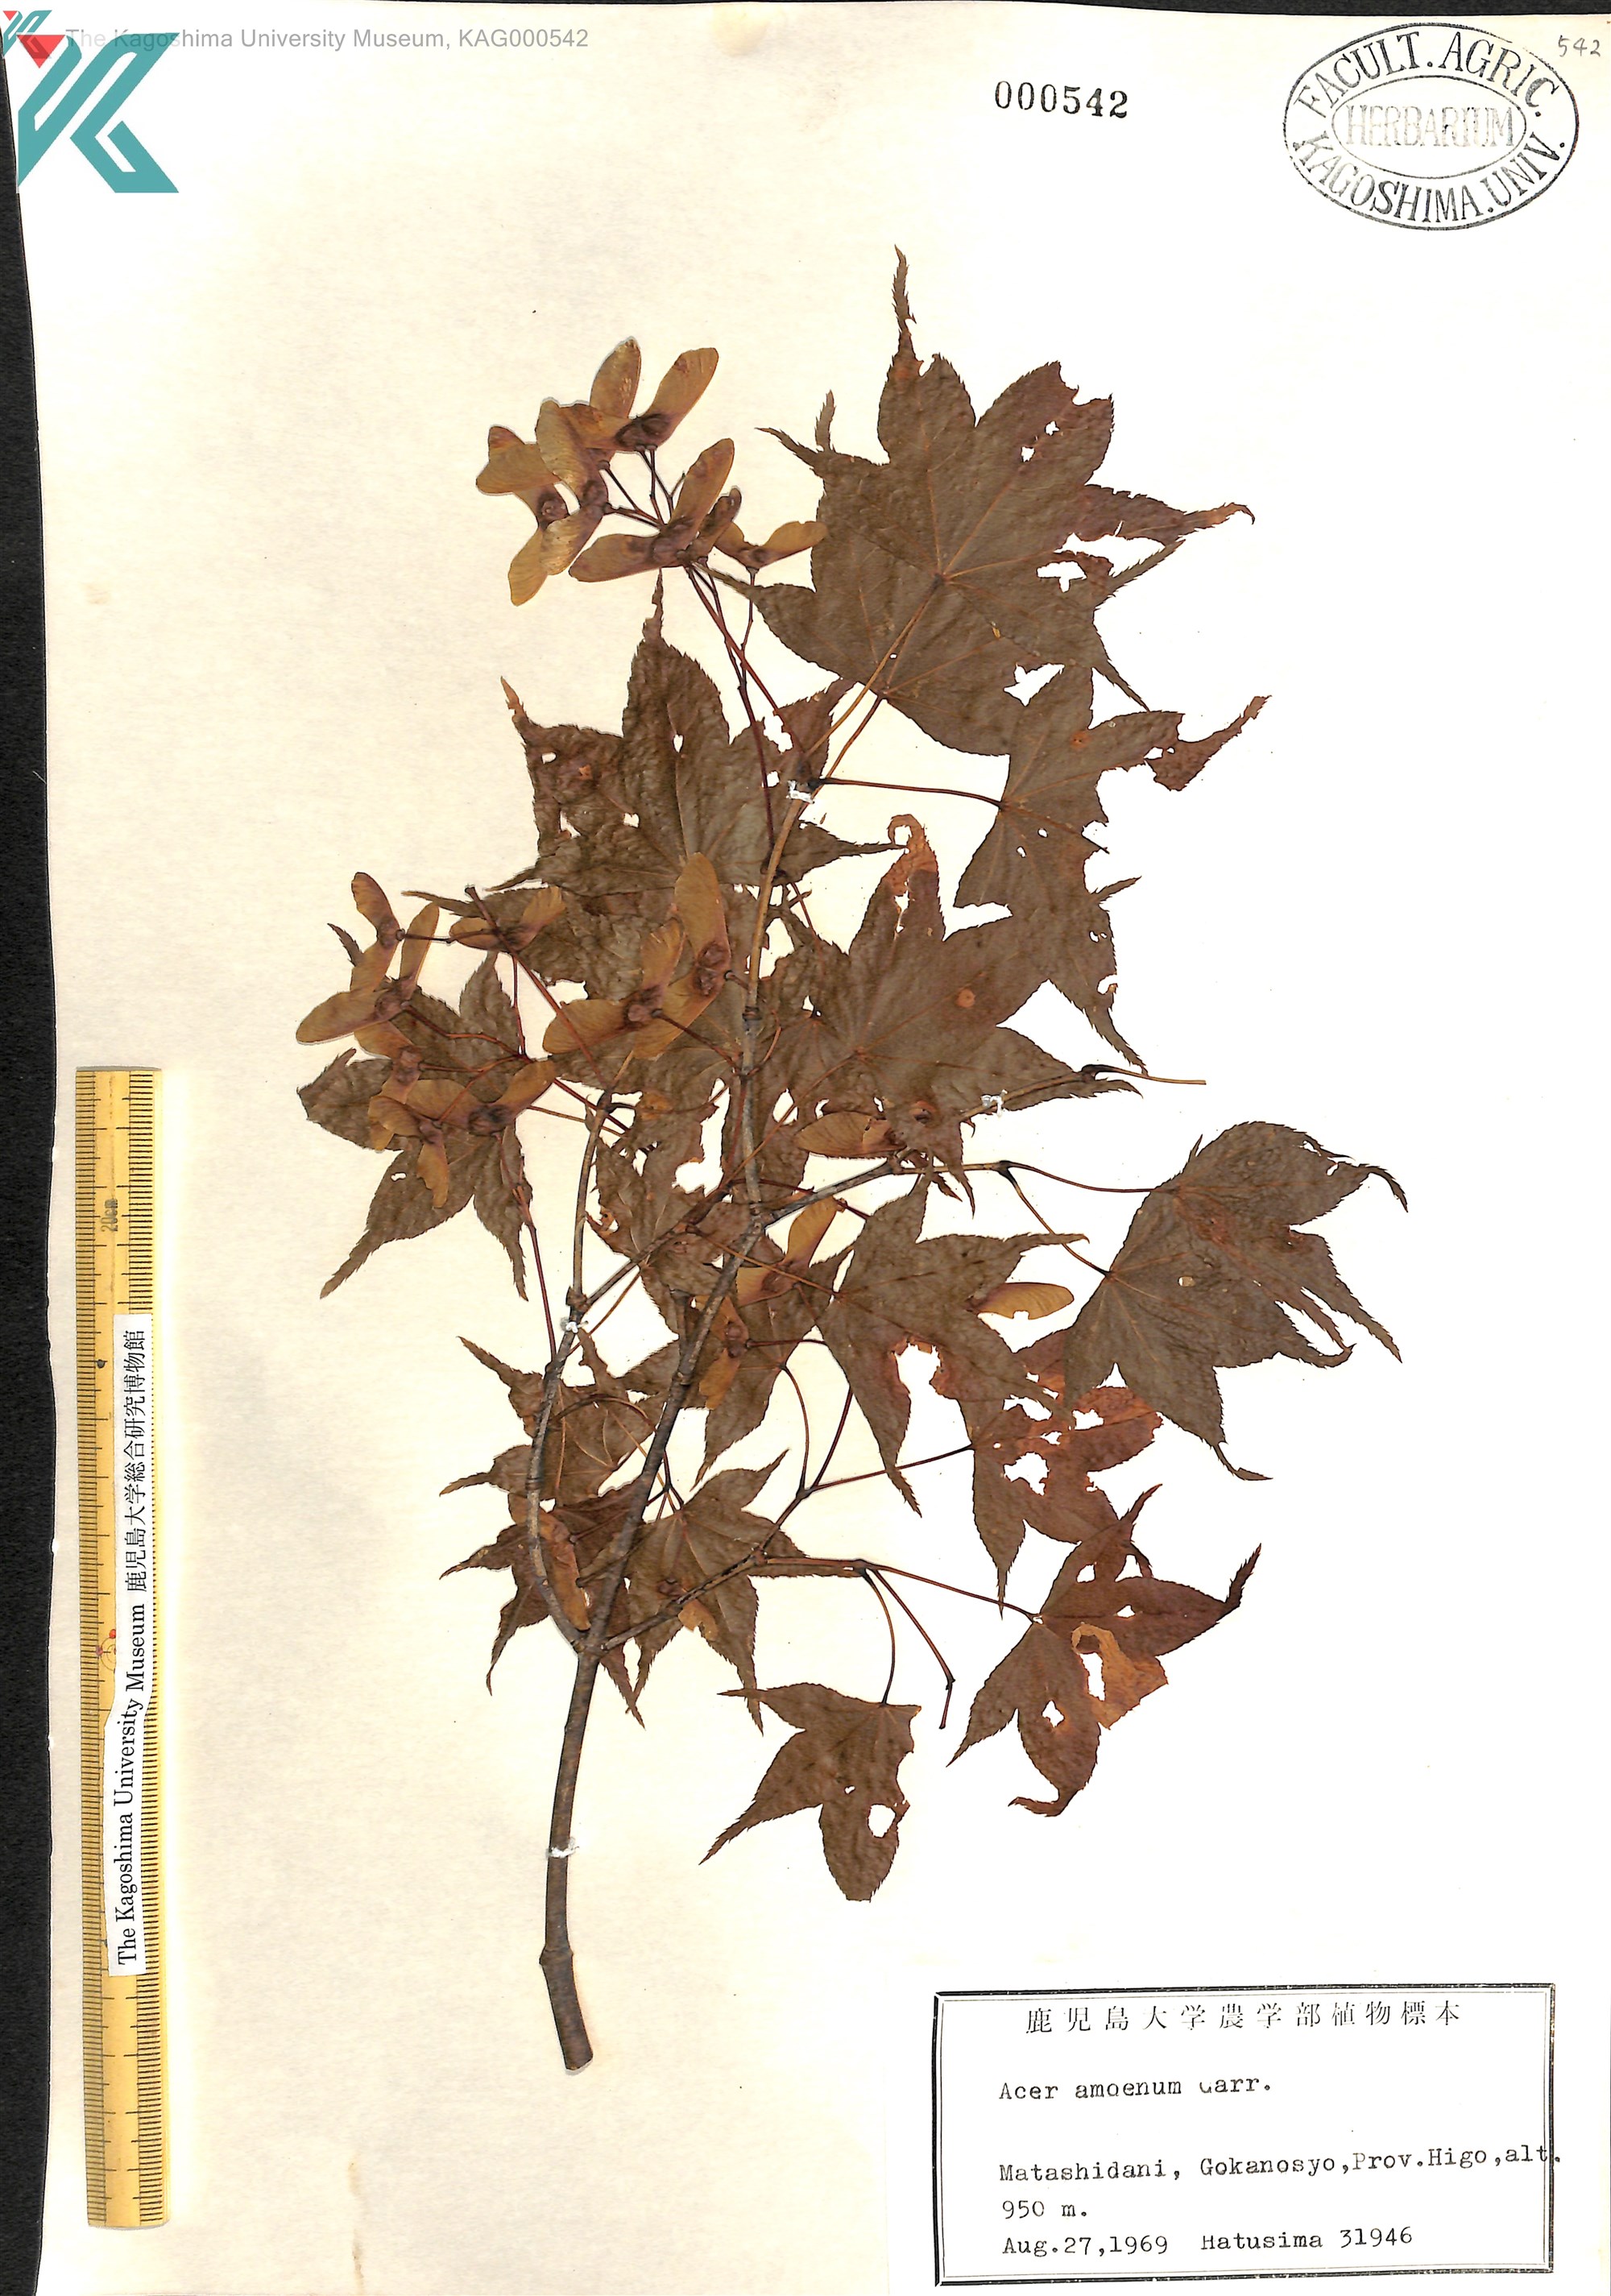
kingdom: Plantae
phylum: Tracheophyta
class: Magnoliopsida
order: Sapindales
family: Sapindaceae
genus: Acer
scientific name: Acer palmatum
